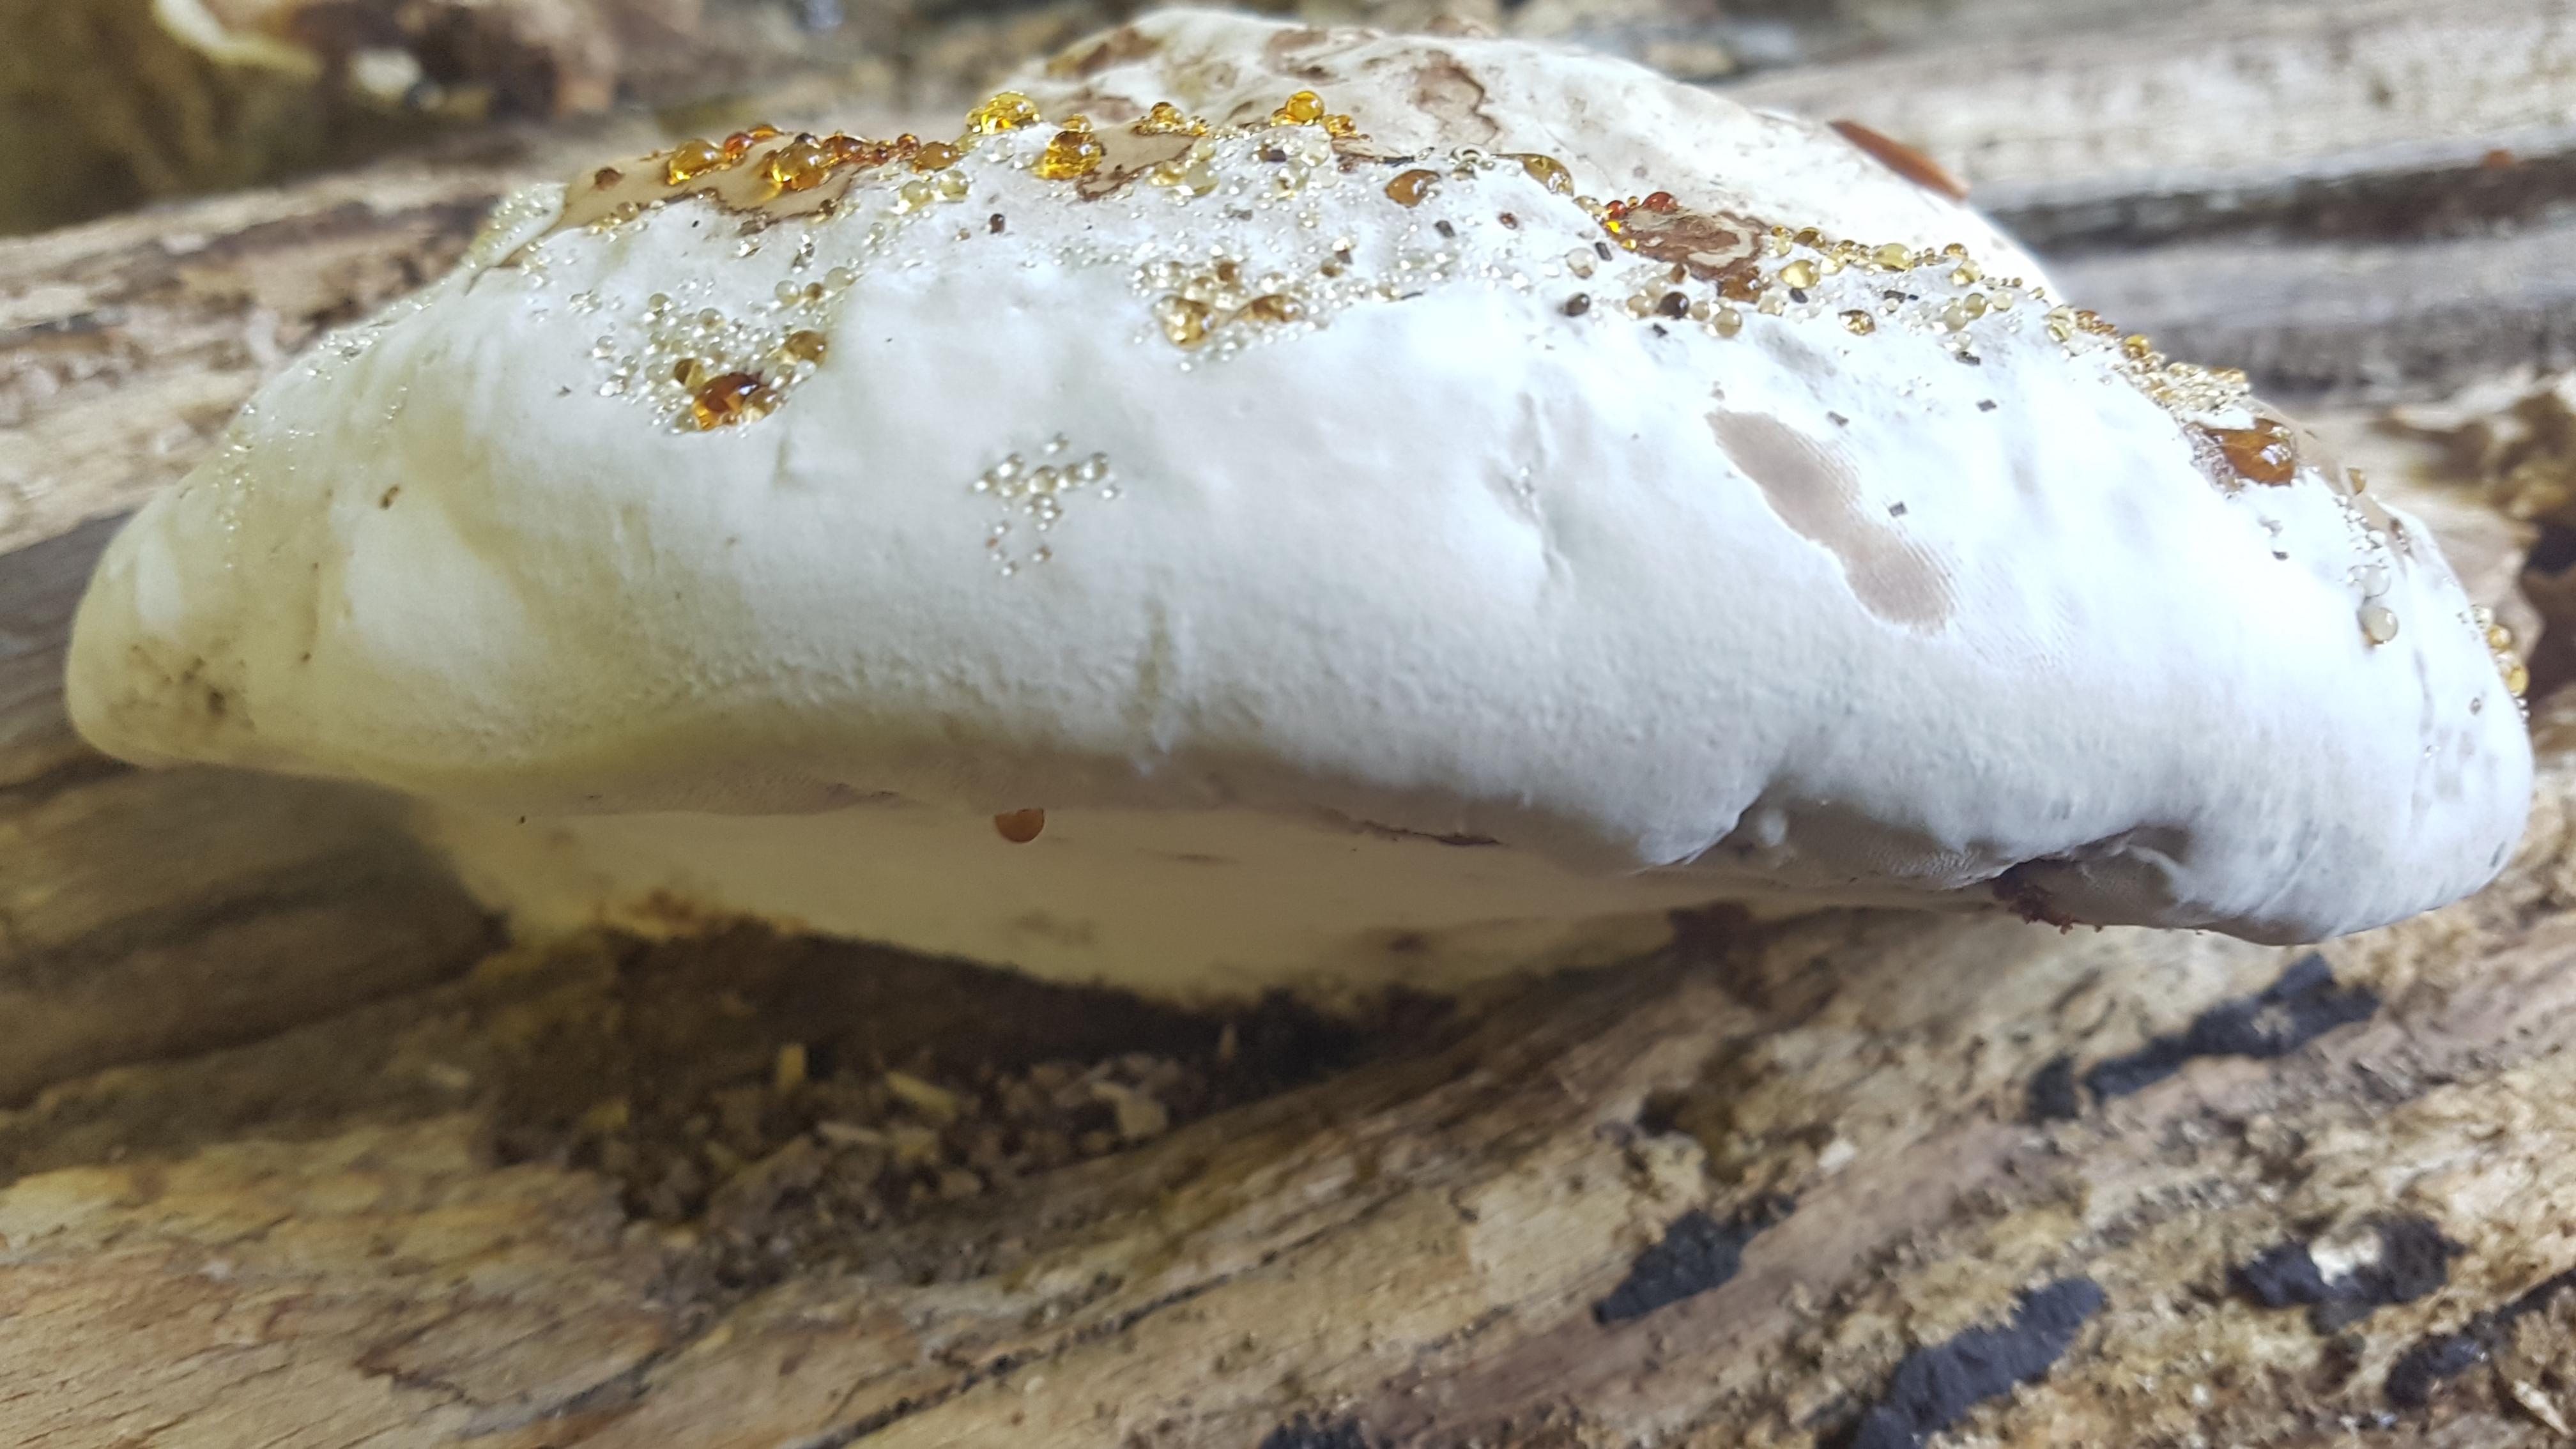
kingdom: Fungi
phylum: Basidiomycota
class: Agaricomycetes
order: Polyporales
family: Polyporaceae
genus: Fomes
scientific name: Fomes fomentarius
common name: tøndersvamp
